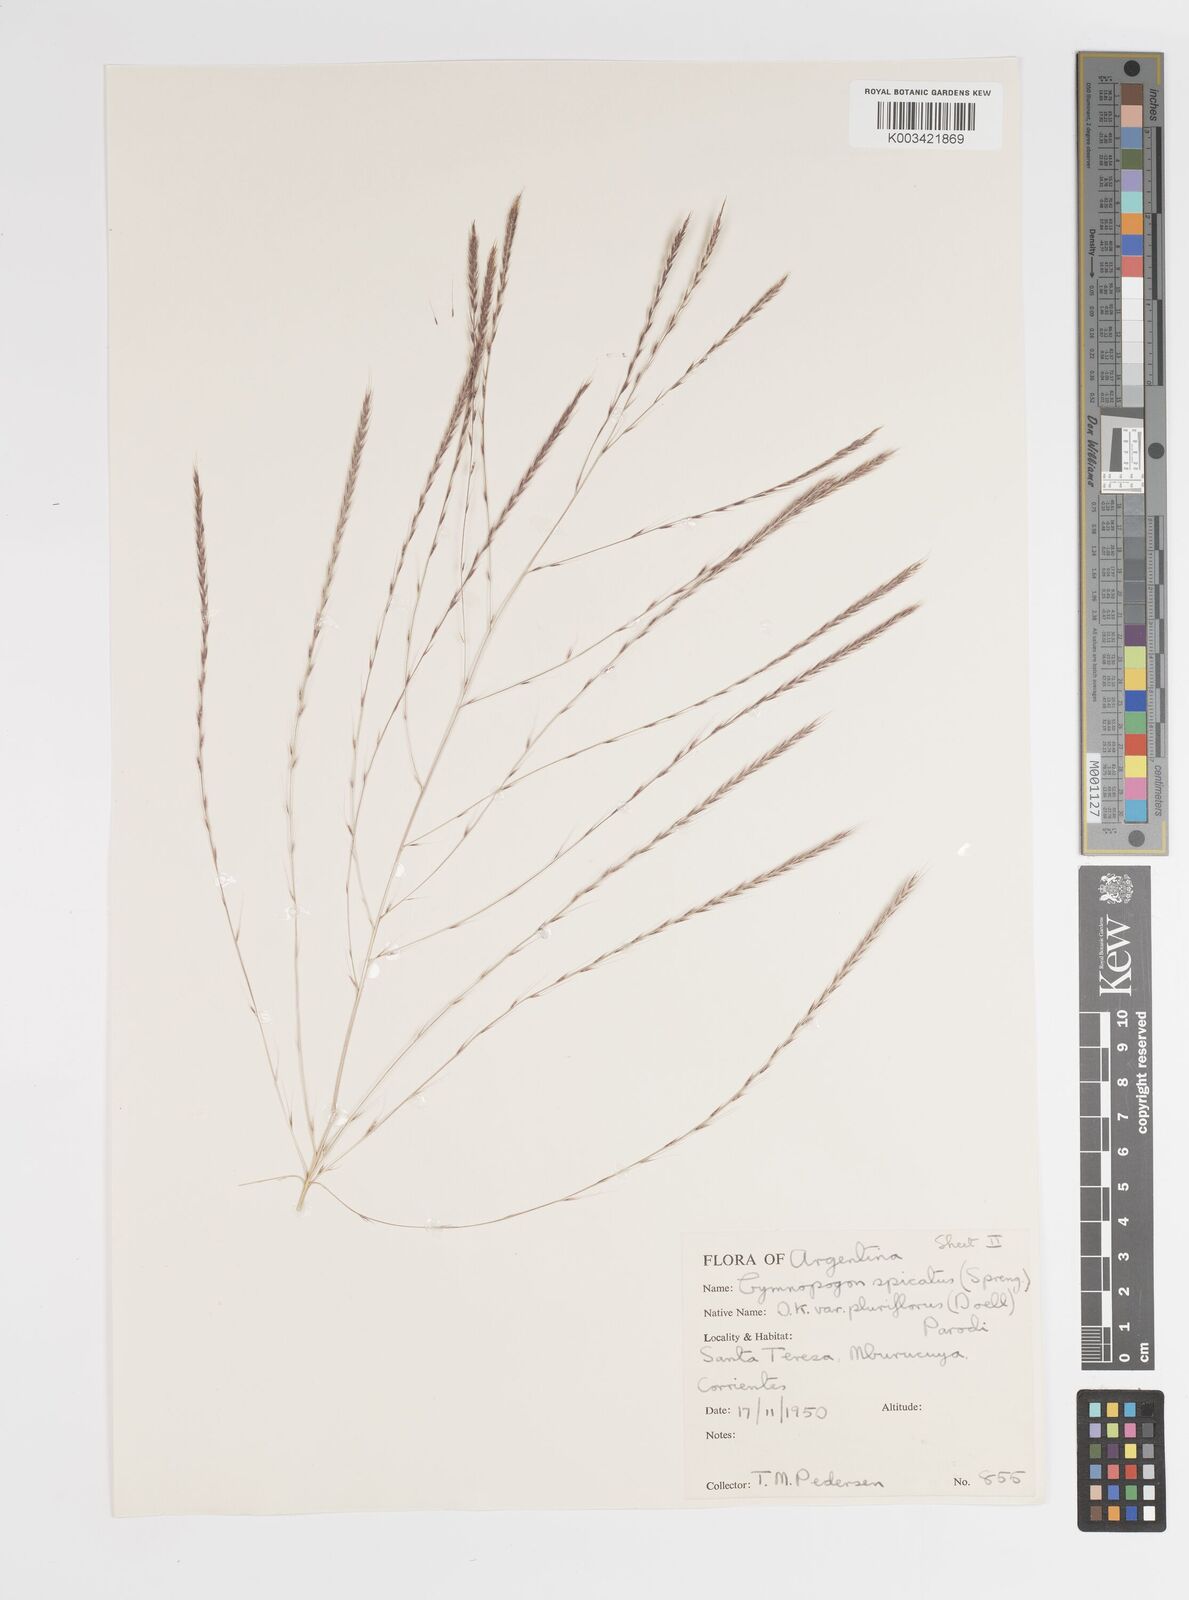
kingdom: Plantae
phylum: Tracheophyta
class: Liliopsida
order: Poales
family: Poaceae
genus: Gymnopogon
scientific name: Gymnopogon spicatus
